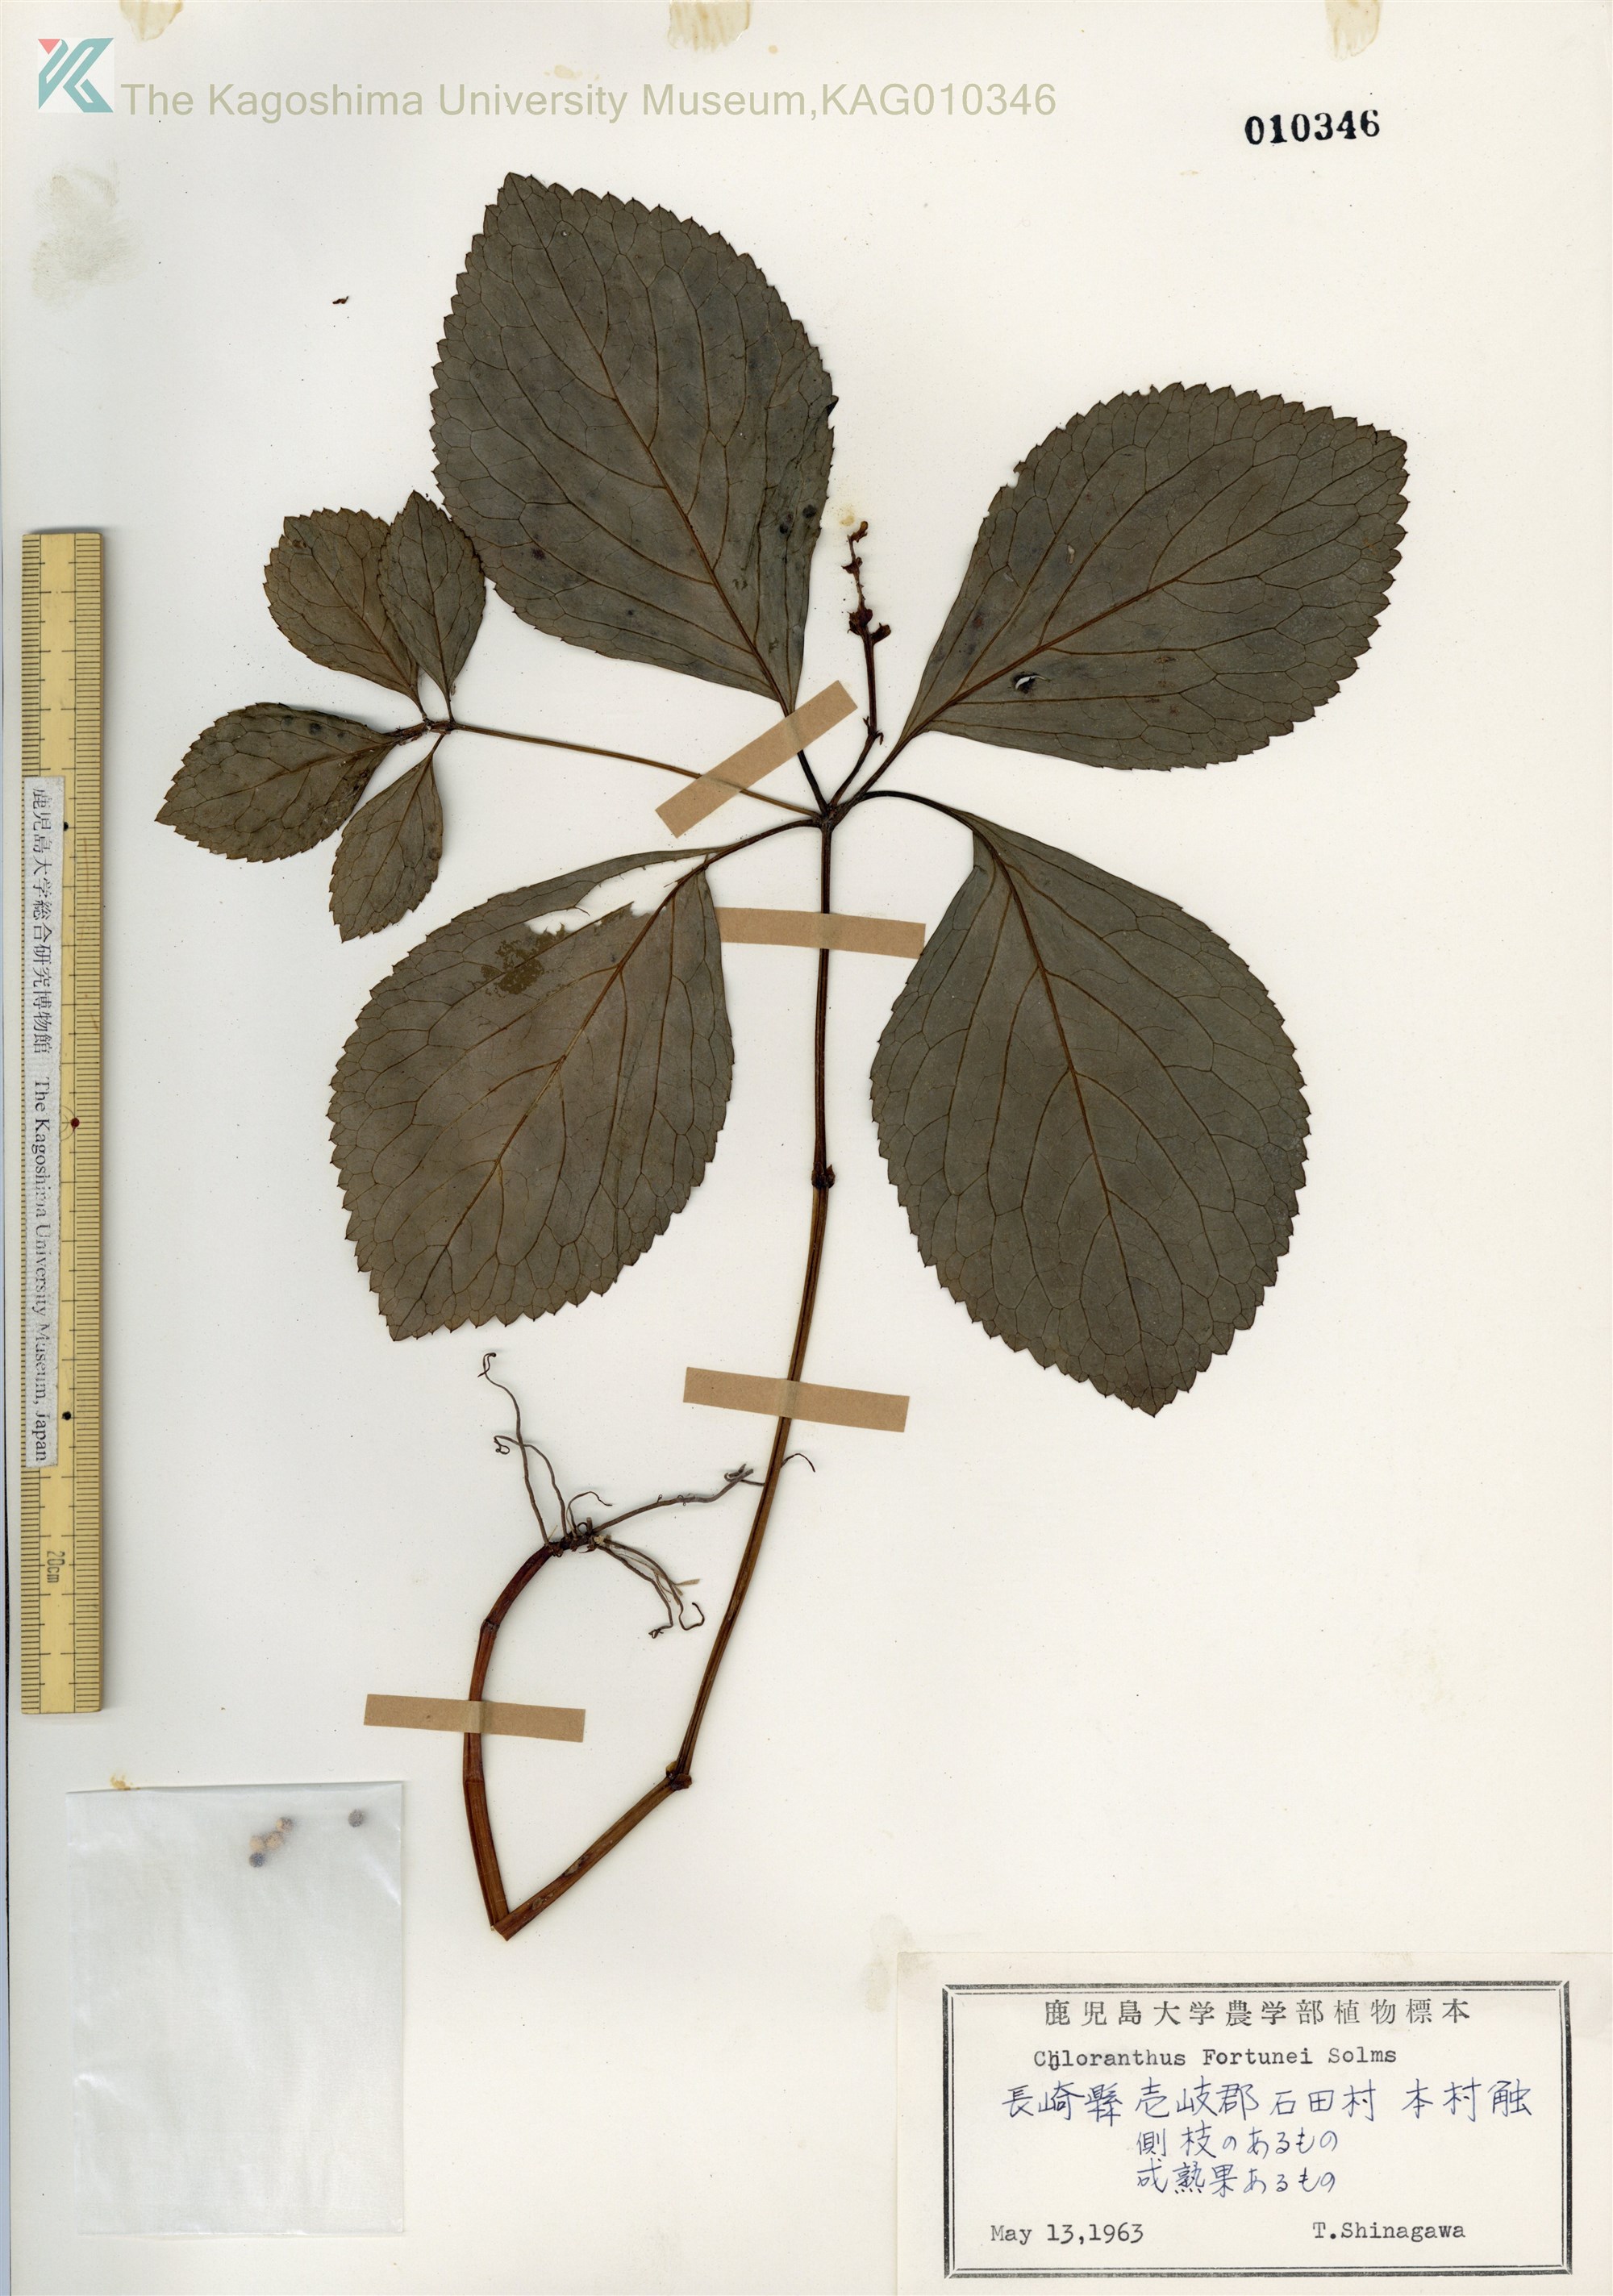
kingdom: Plantae
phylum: Tracheophyta
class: Magnoliopsida
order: Chloranthales
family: Chloranthaceae
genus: Chloranthus
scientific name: Chloranthus fortunei
